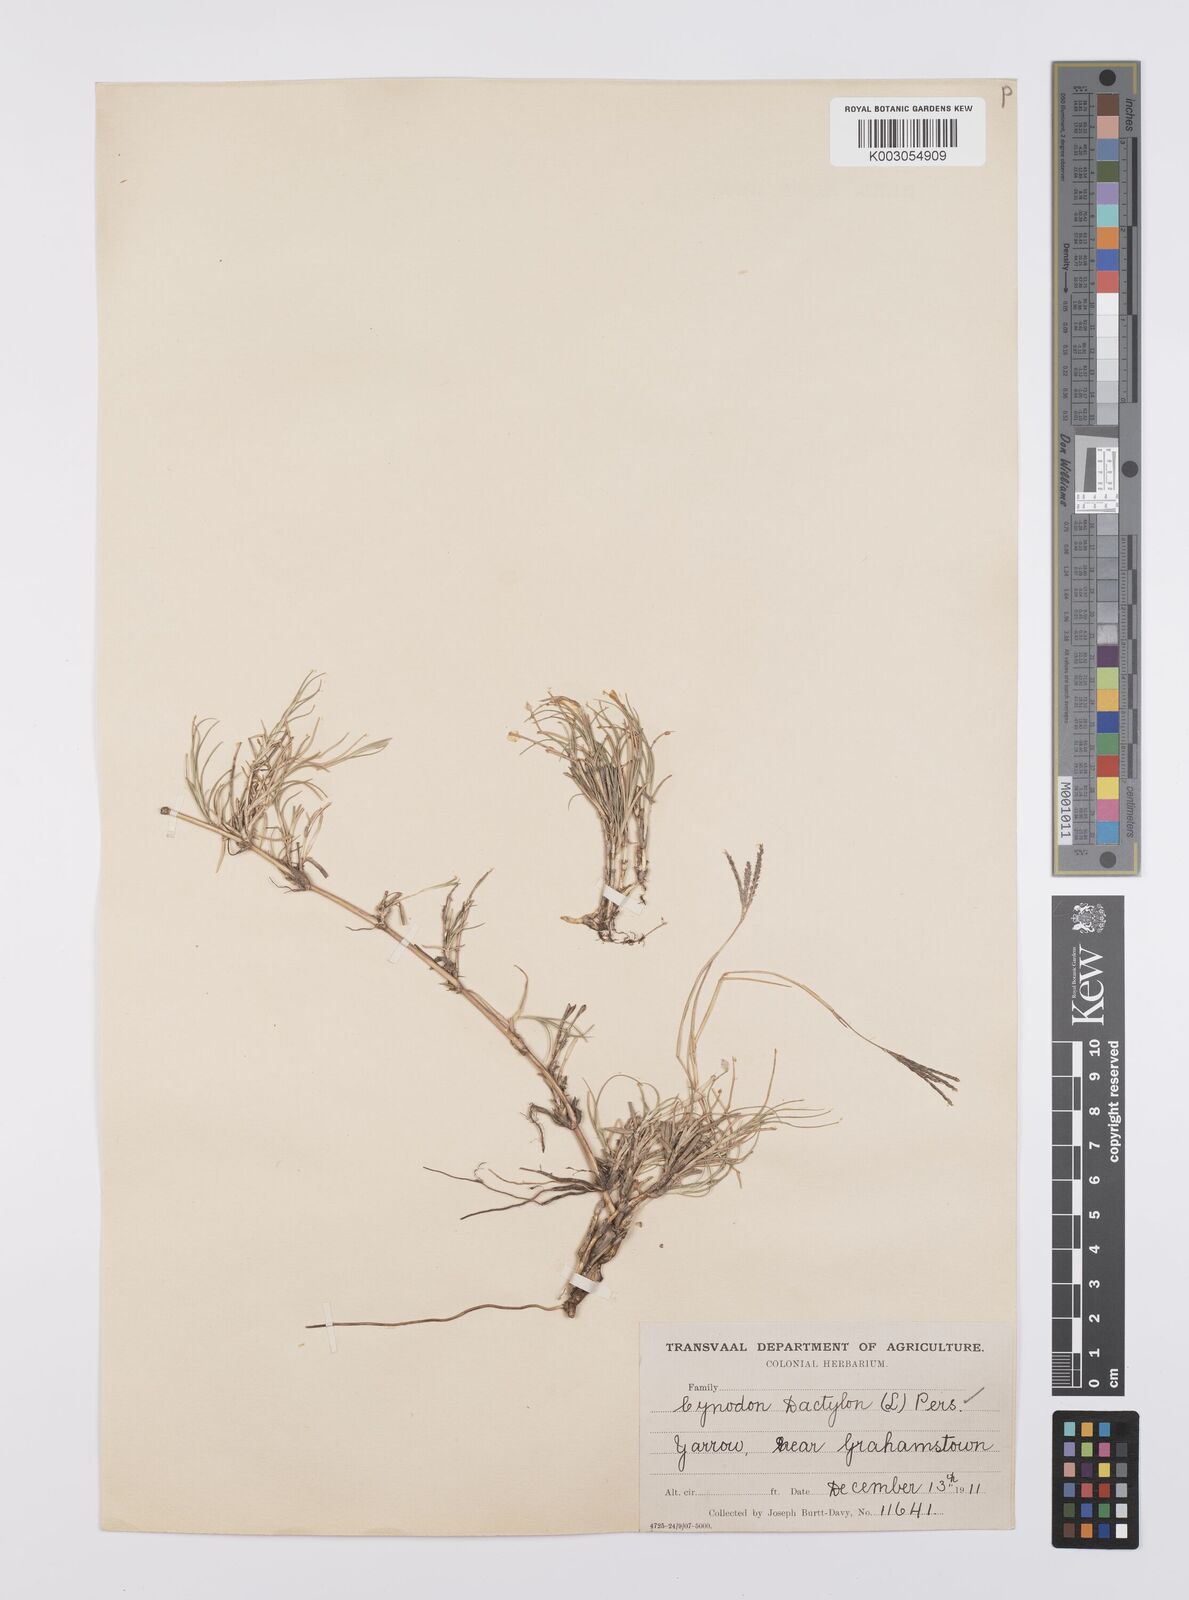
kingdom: Plantae
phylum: Tracheophyta
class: Liliopsida
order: Poales
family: Poaceae
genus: Cynodon
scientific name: Cynodon dactylon
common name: Bermuda grass
